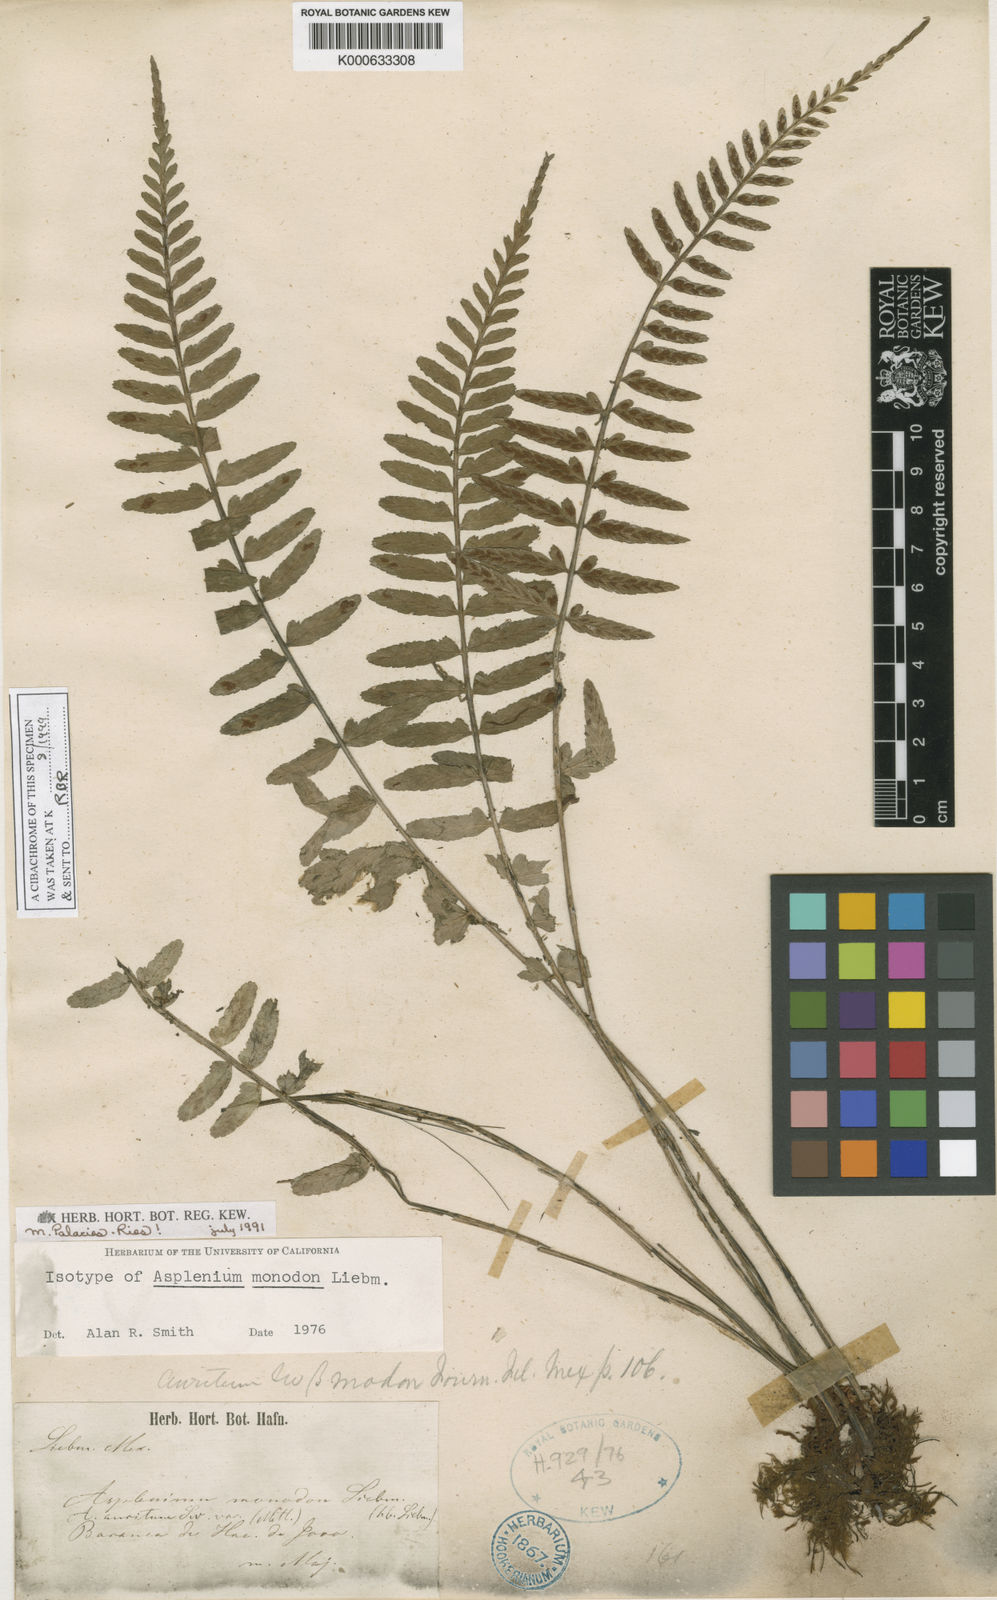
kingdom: Plantae
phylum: Tracheophyta
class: Polypodiopsida
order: Polypodiales
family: Aspleniaceae
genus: Asplenium
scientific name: Asplenium monodon
